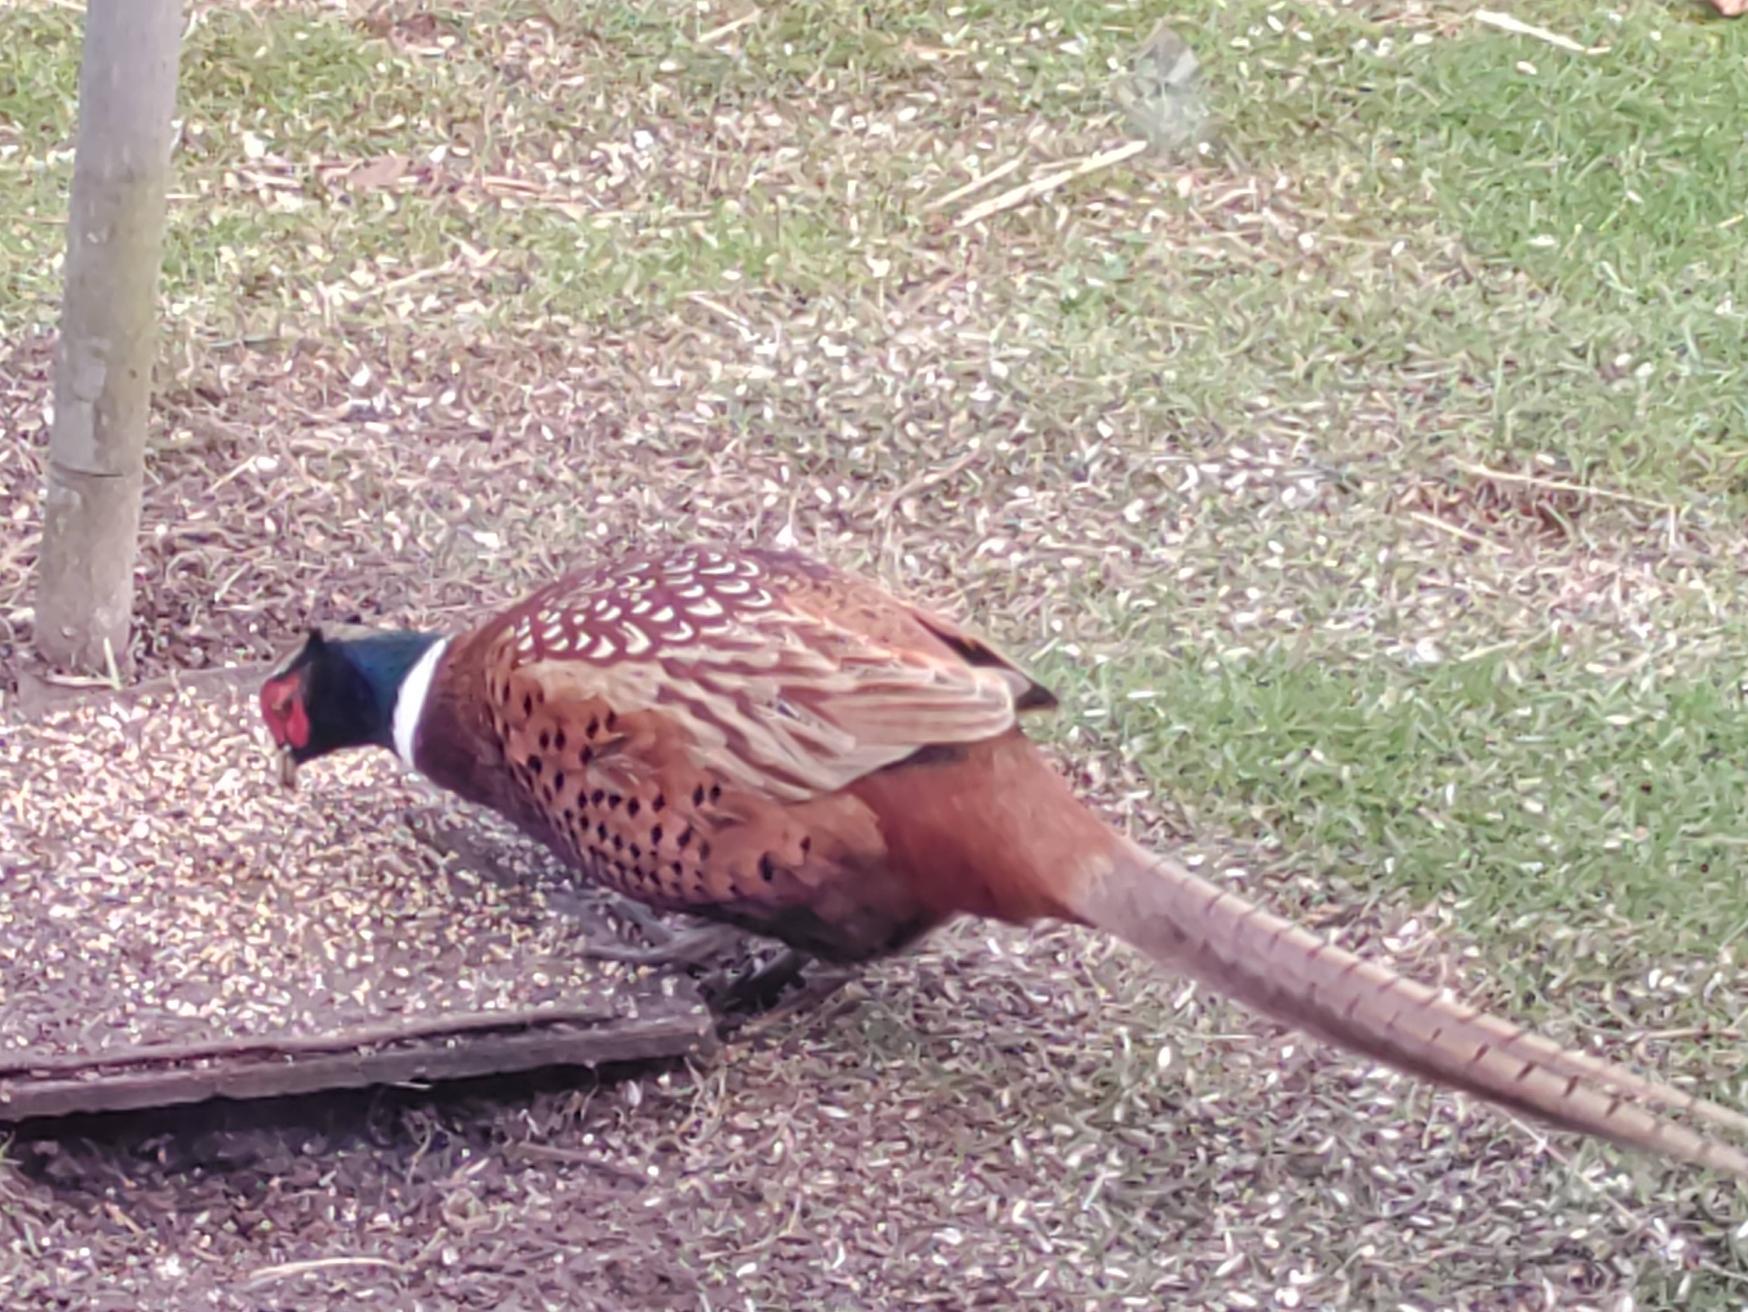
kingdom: Animalia
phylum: Chordata
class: Aves
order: Galliformes
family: Phasianidae
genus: Phasianus
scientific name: Phasianus colchicus
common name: Fasan
